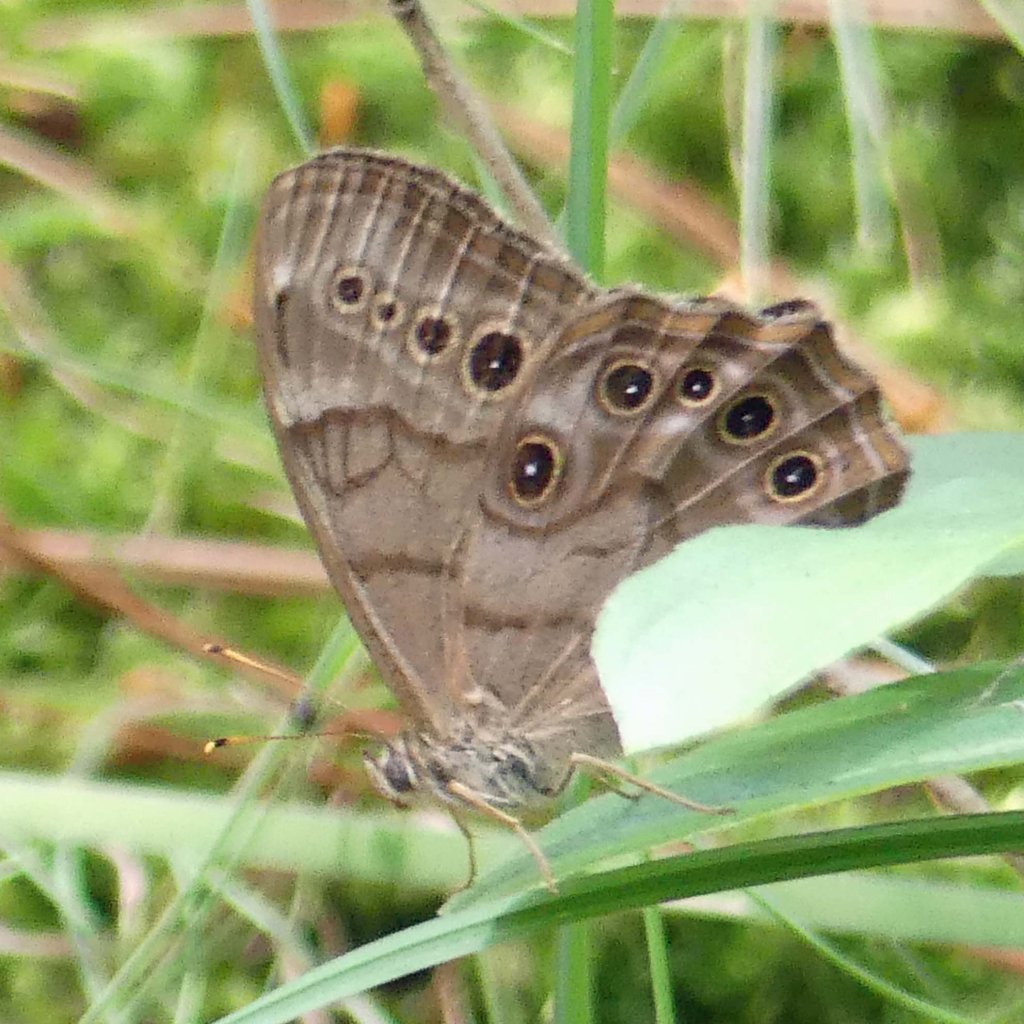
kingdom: Animalia
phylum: Arthropoda
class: Insecta
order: Lepidoptera
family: Nymphalidae
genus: Lethe
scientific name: Lethe anthedon
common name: Northern Pearly-Eye
